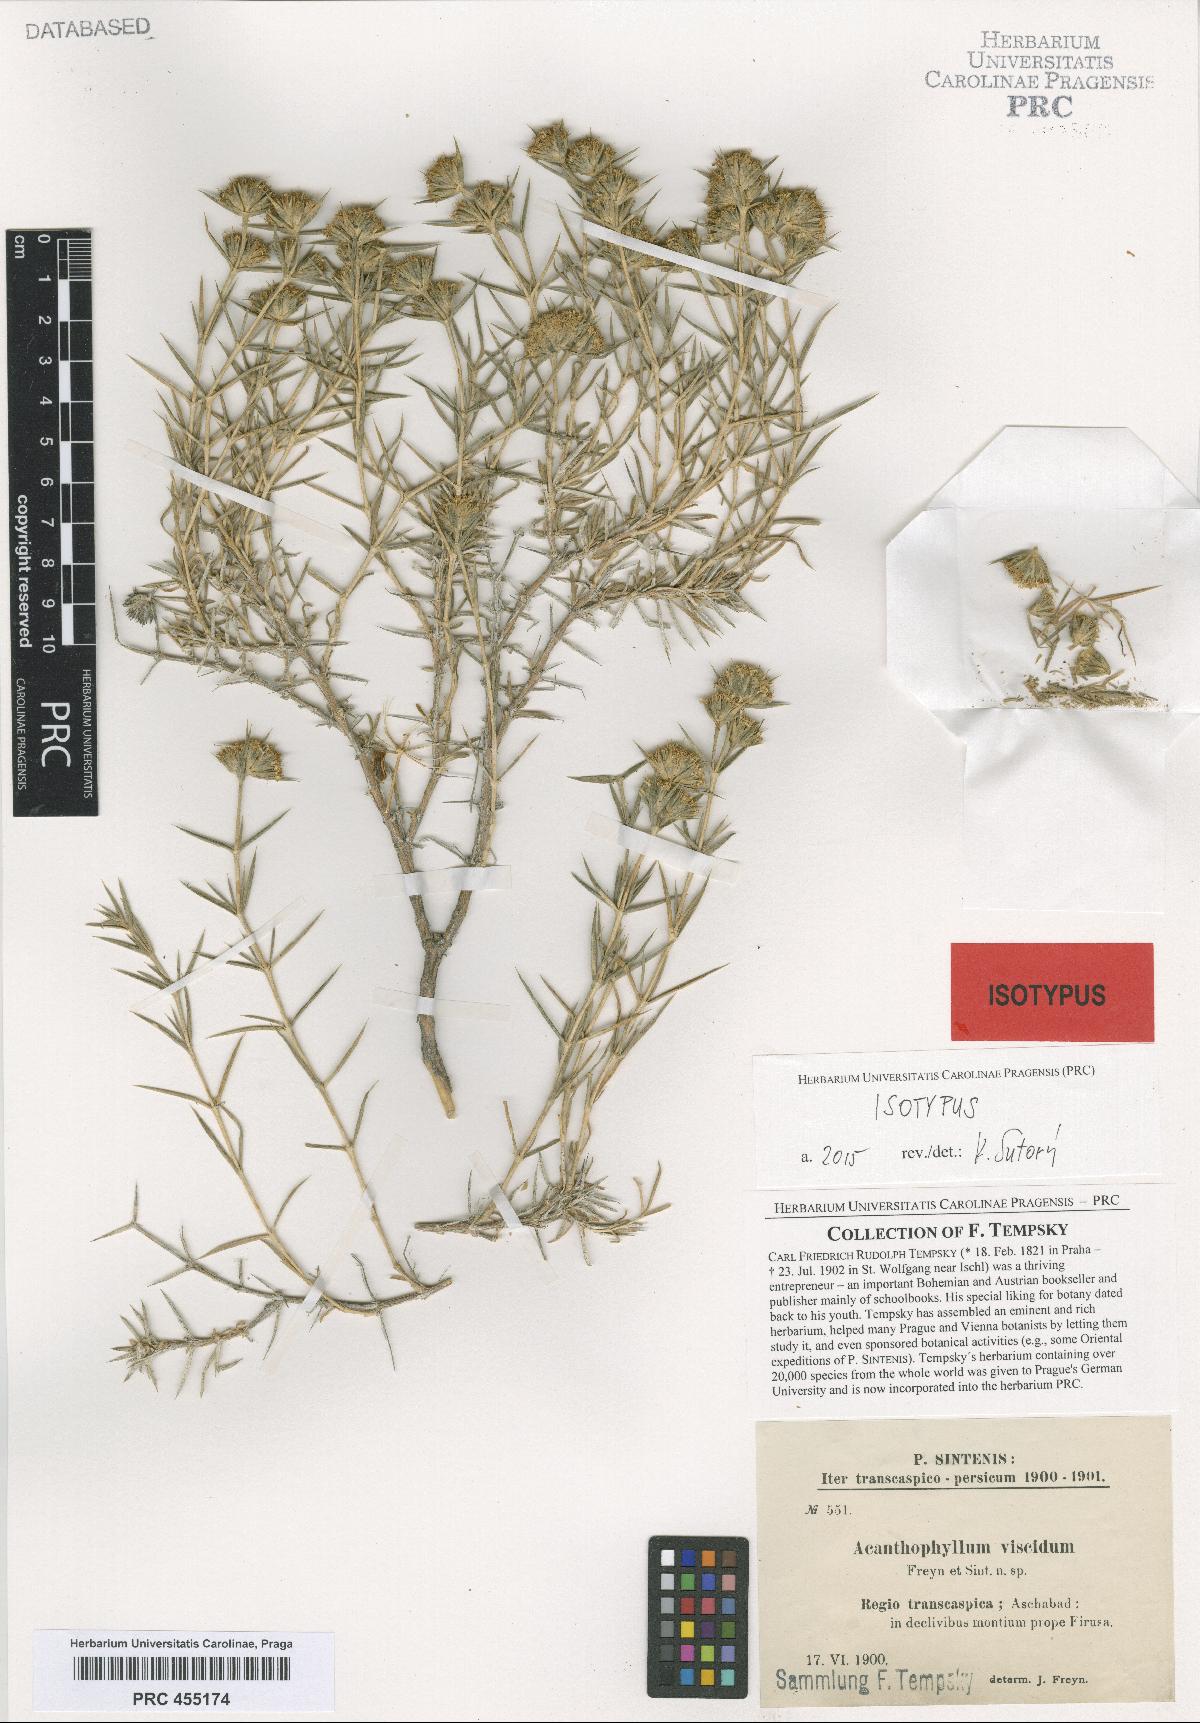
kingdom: Plantae
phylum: Tracheophyta
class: Magnoliopsida
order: Caryophyllales
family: Caryophyllaceae
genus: Acanthophyllum
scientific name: Acanthophyllum sordidum
